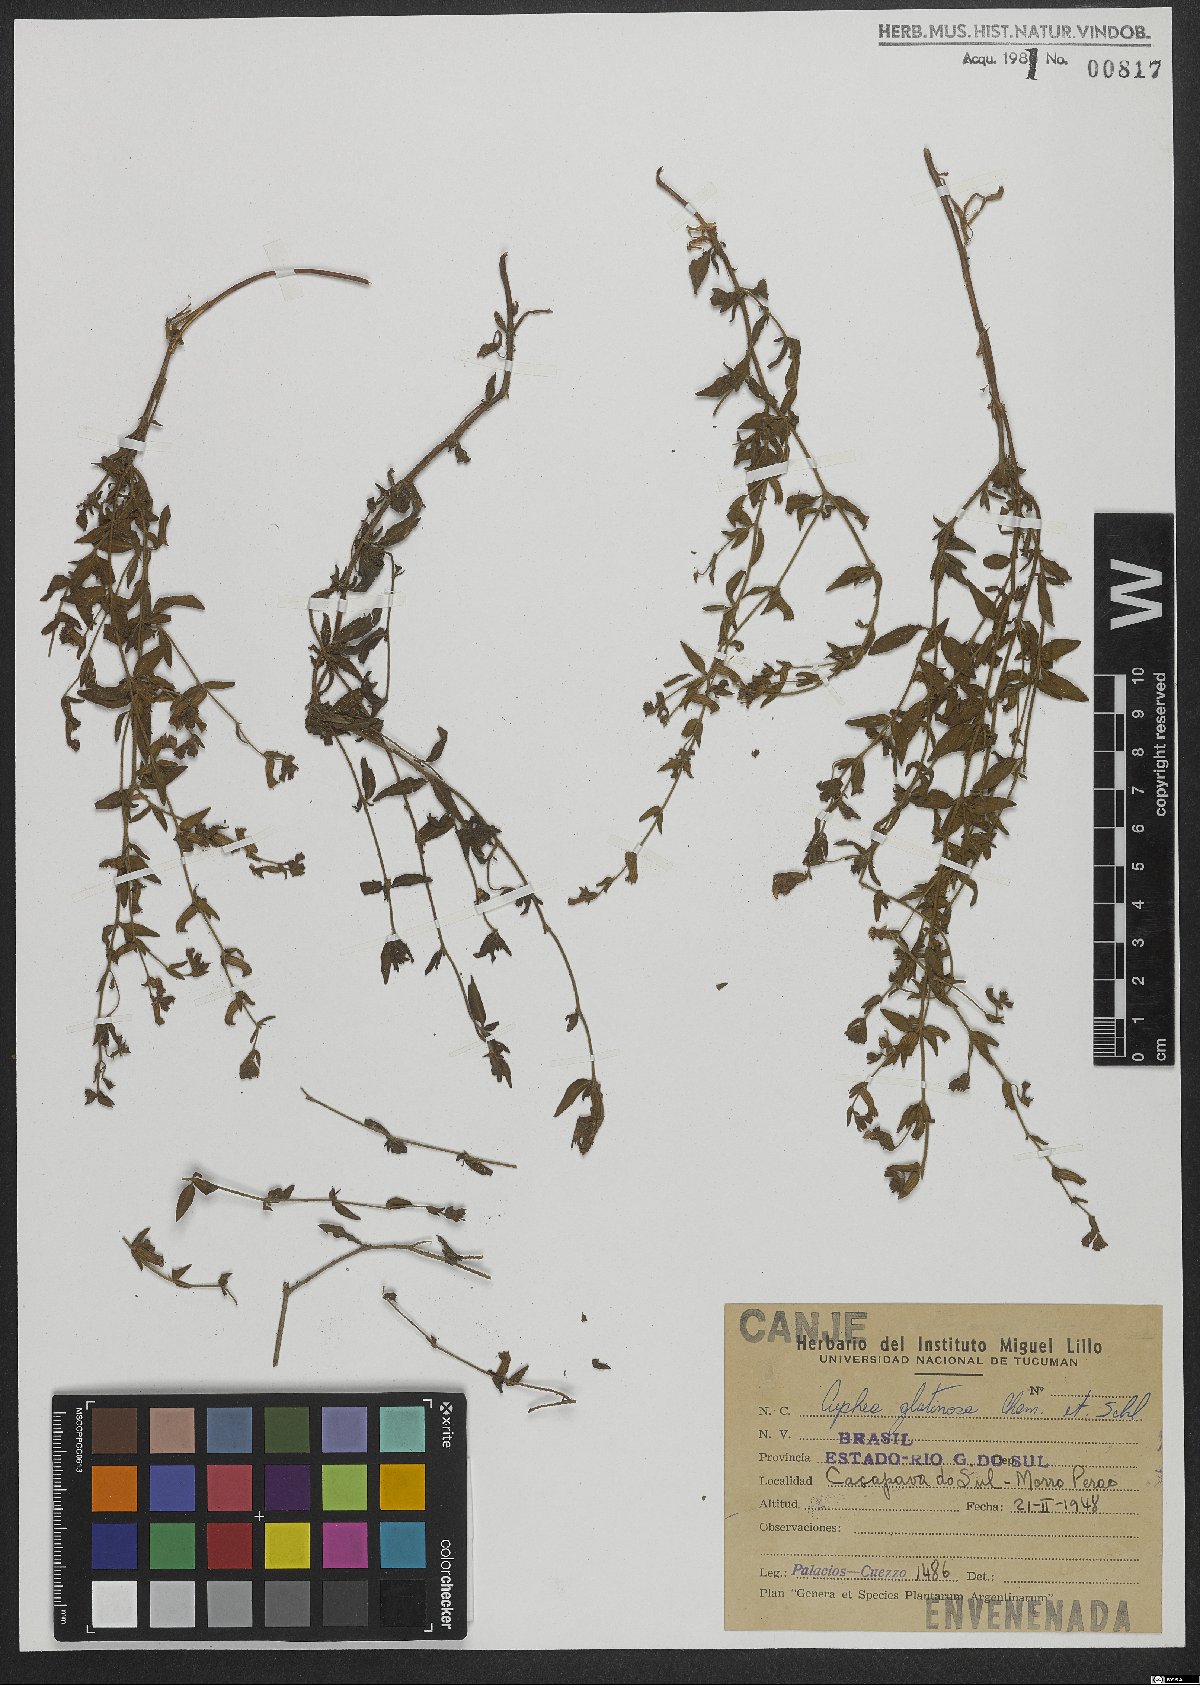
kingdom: Plantae
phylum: Tracheophyta
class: Magnoliopsida
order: Myrtales
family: Lythraceae
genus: Cuphea
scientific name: Cuphea glutinosa
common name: Sticky waxweed
